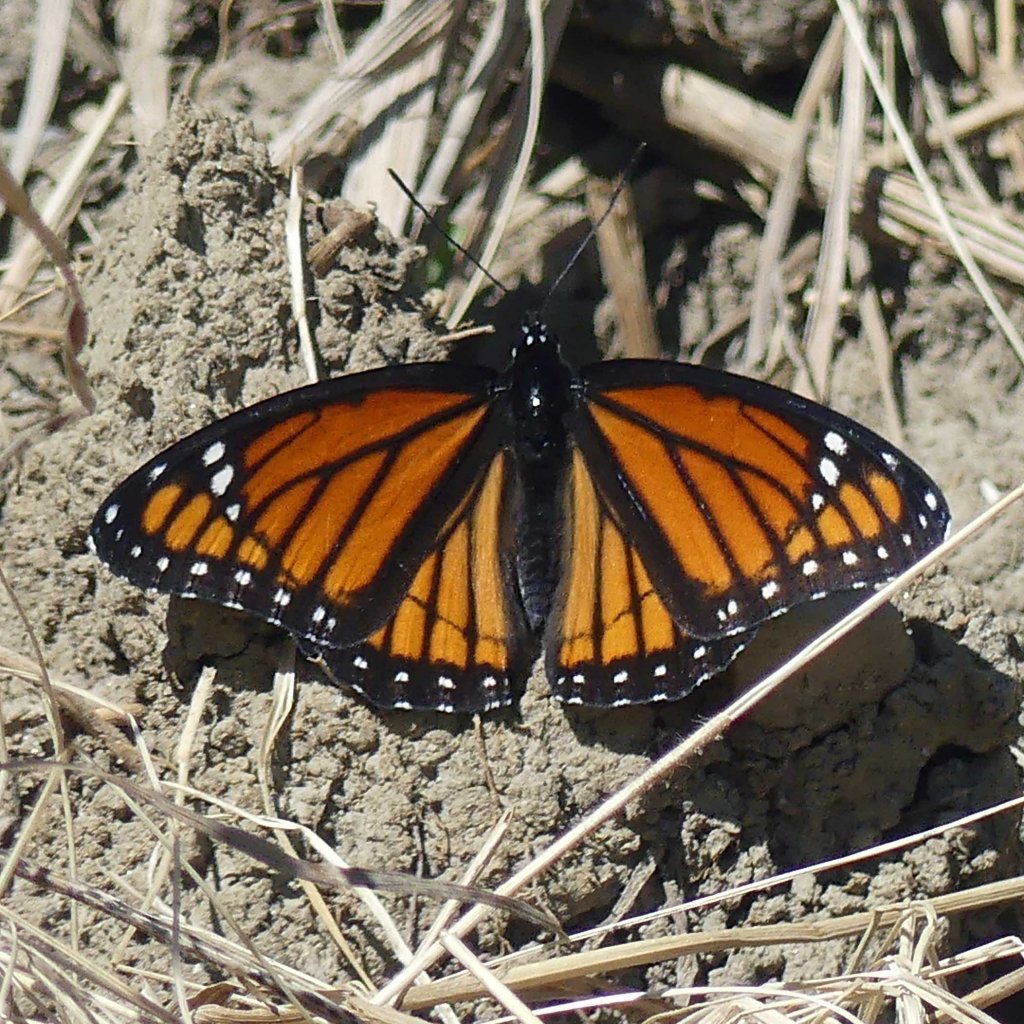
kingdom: Animalia
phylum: Arthropoda
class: Insecta
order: Lepidoptera
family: Nymphalidae
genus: Limenitis
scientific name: Limenitis archippus
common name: Viceroy
